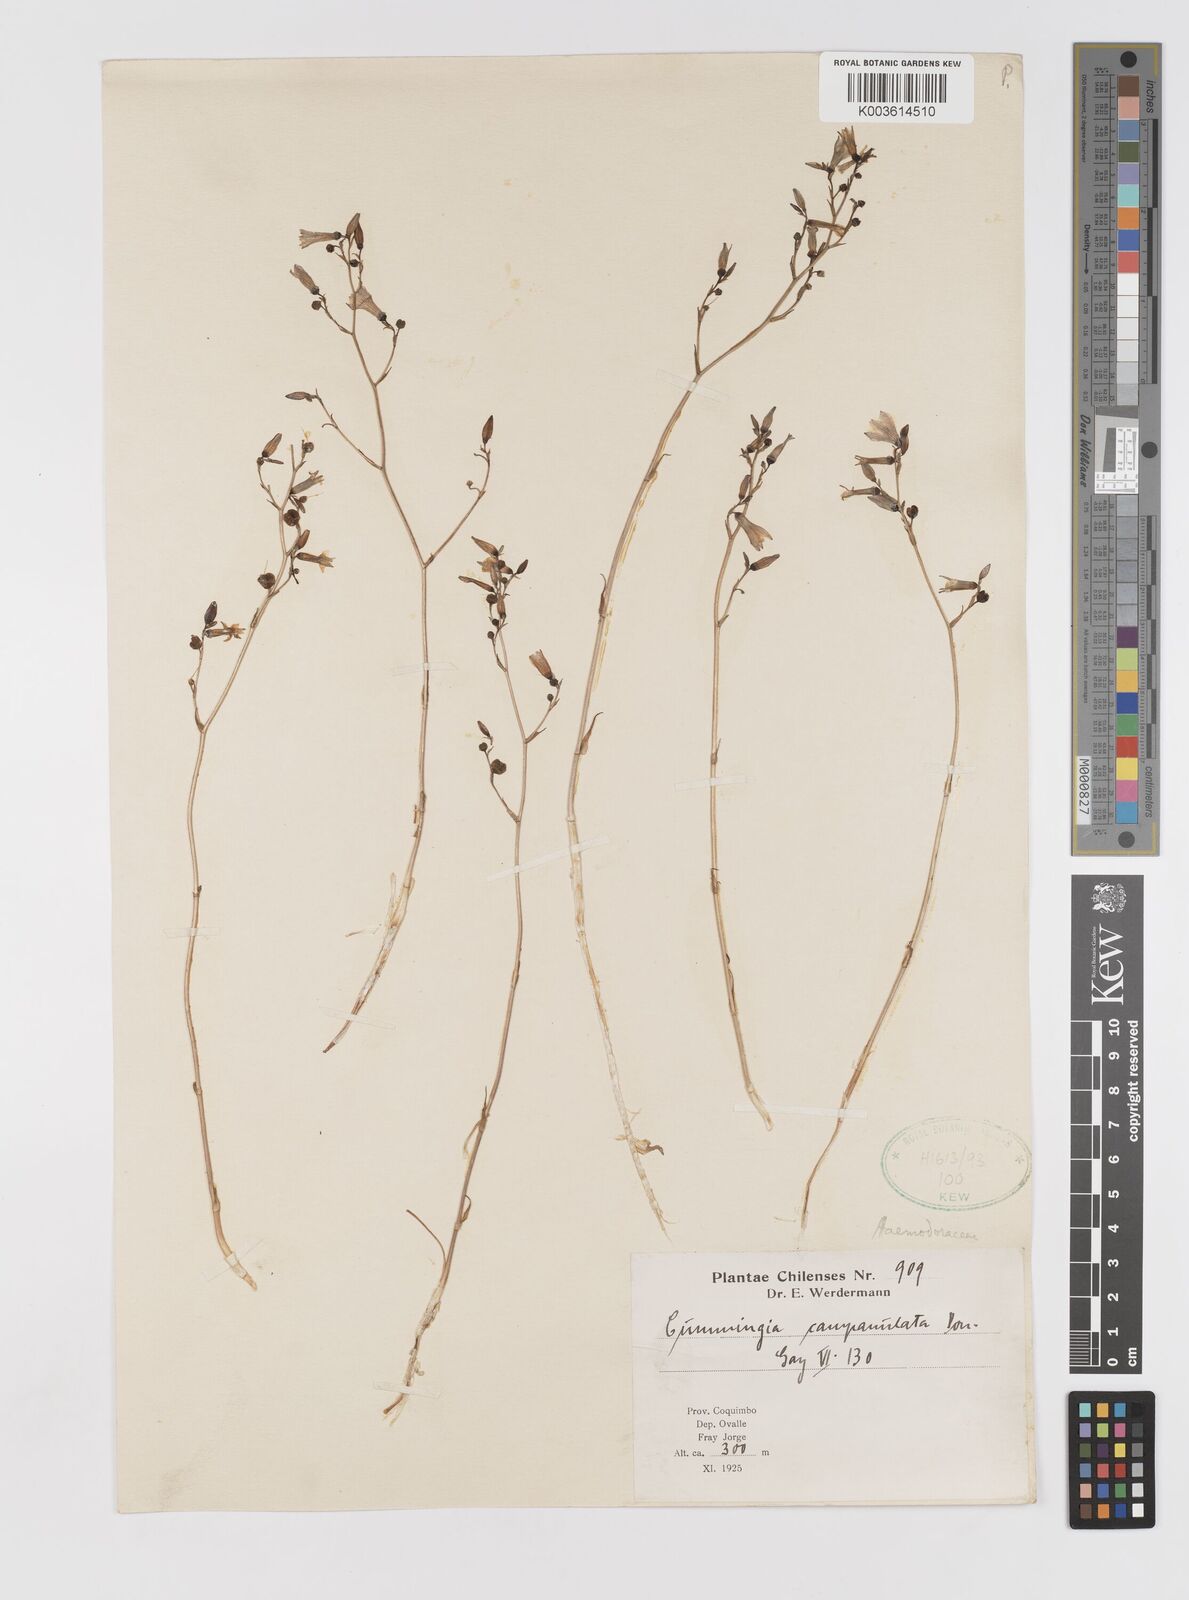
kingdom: Plantae
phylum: Tracheophyta
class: Liliopsida
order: Asparagales
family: Tecophilaeaceae
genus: Conanthera
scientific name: Conanthera campanulata
